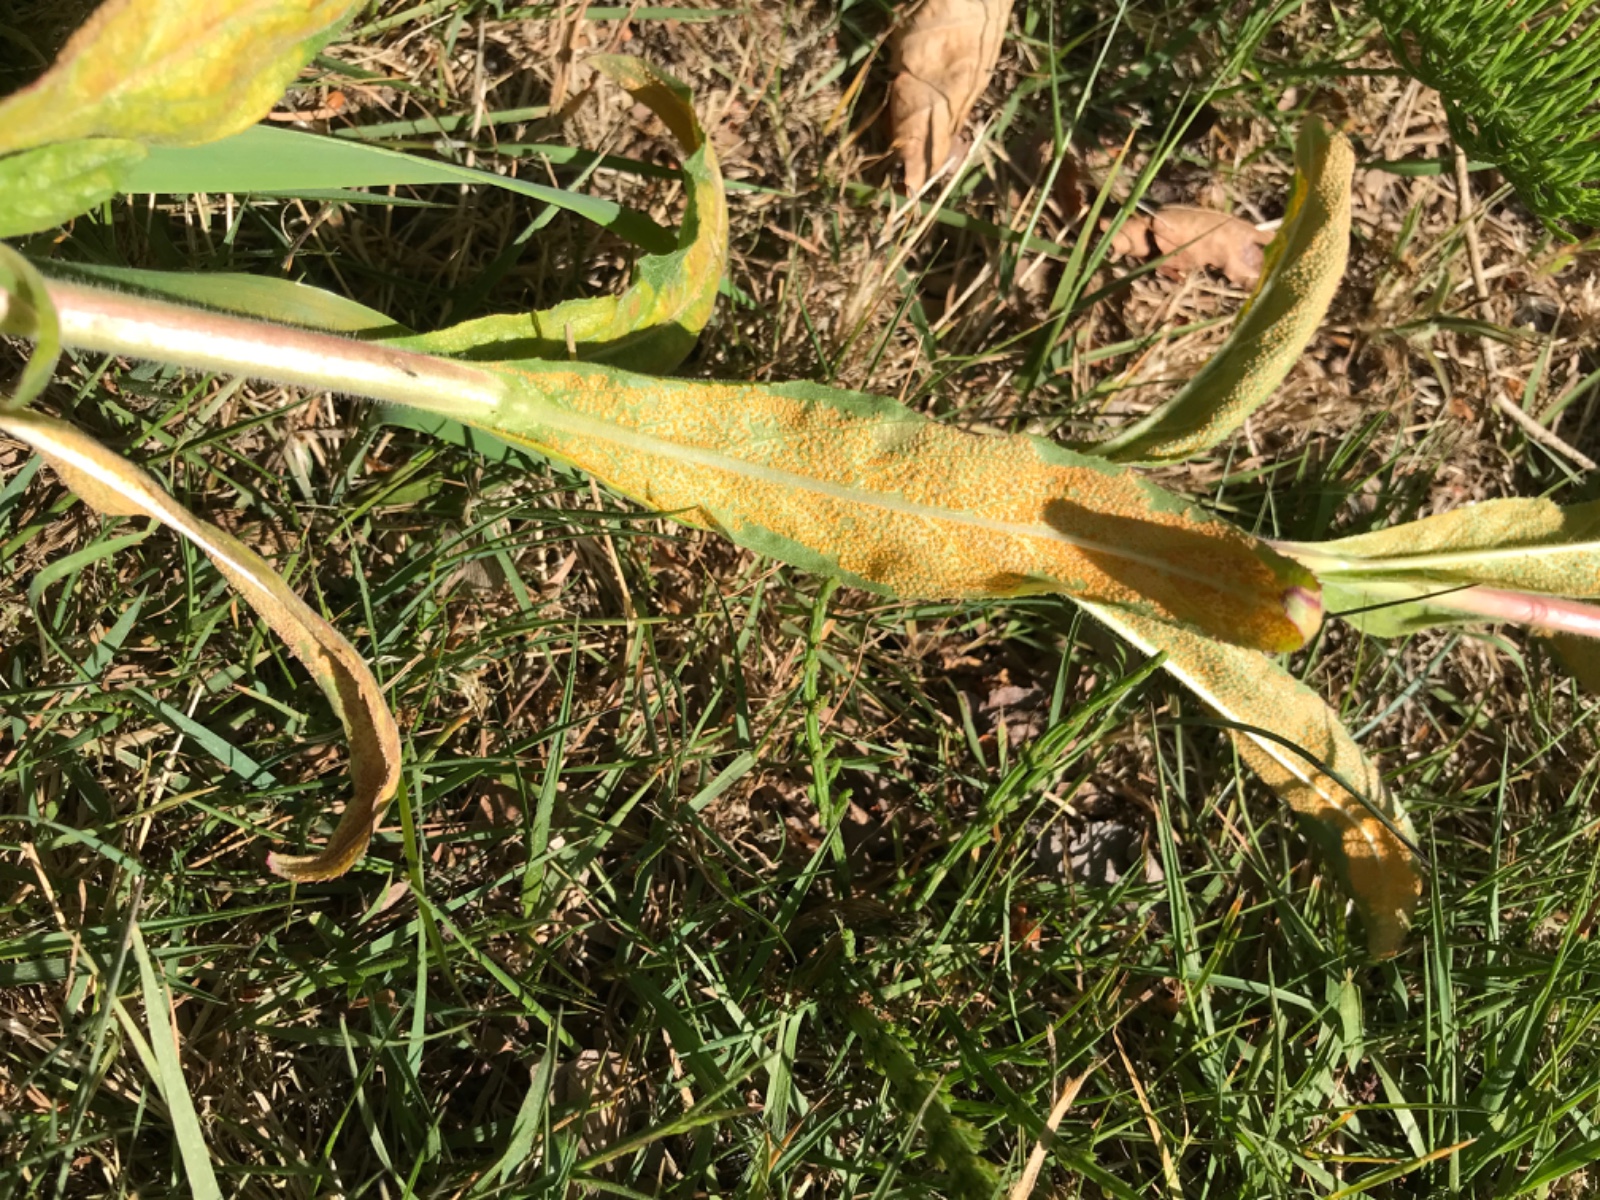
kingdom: Fungi
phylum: Basidiomycota
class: Pucciniomycetes
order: Pucciniales
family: Pucciniaceae
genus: Puccinia
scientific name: Puccinia pulverulenta
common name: dueurt-tvecellerust
